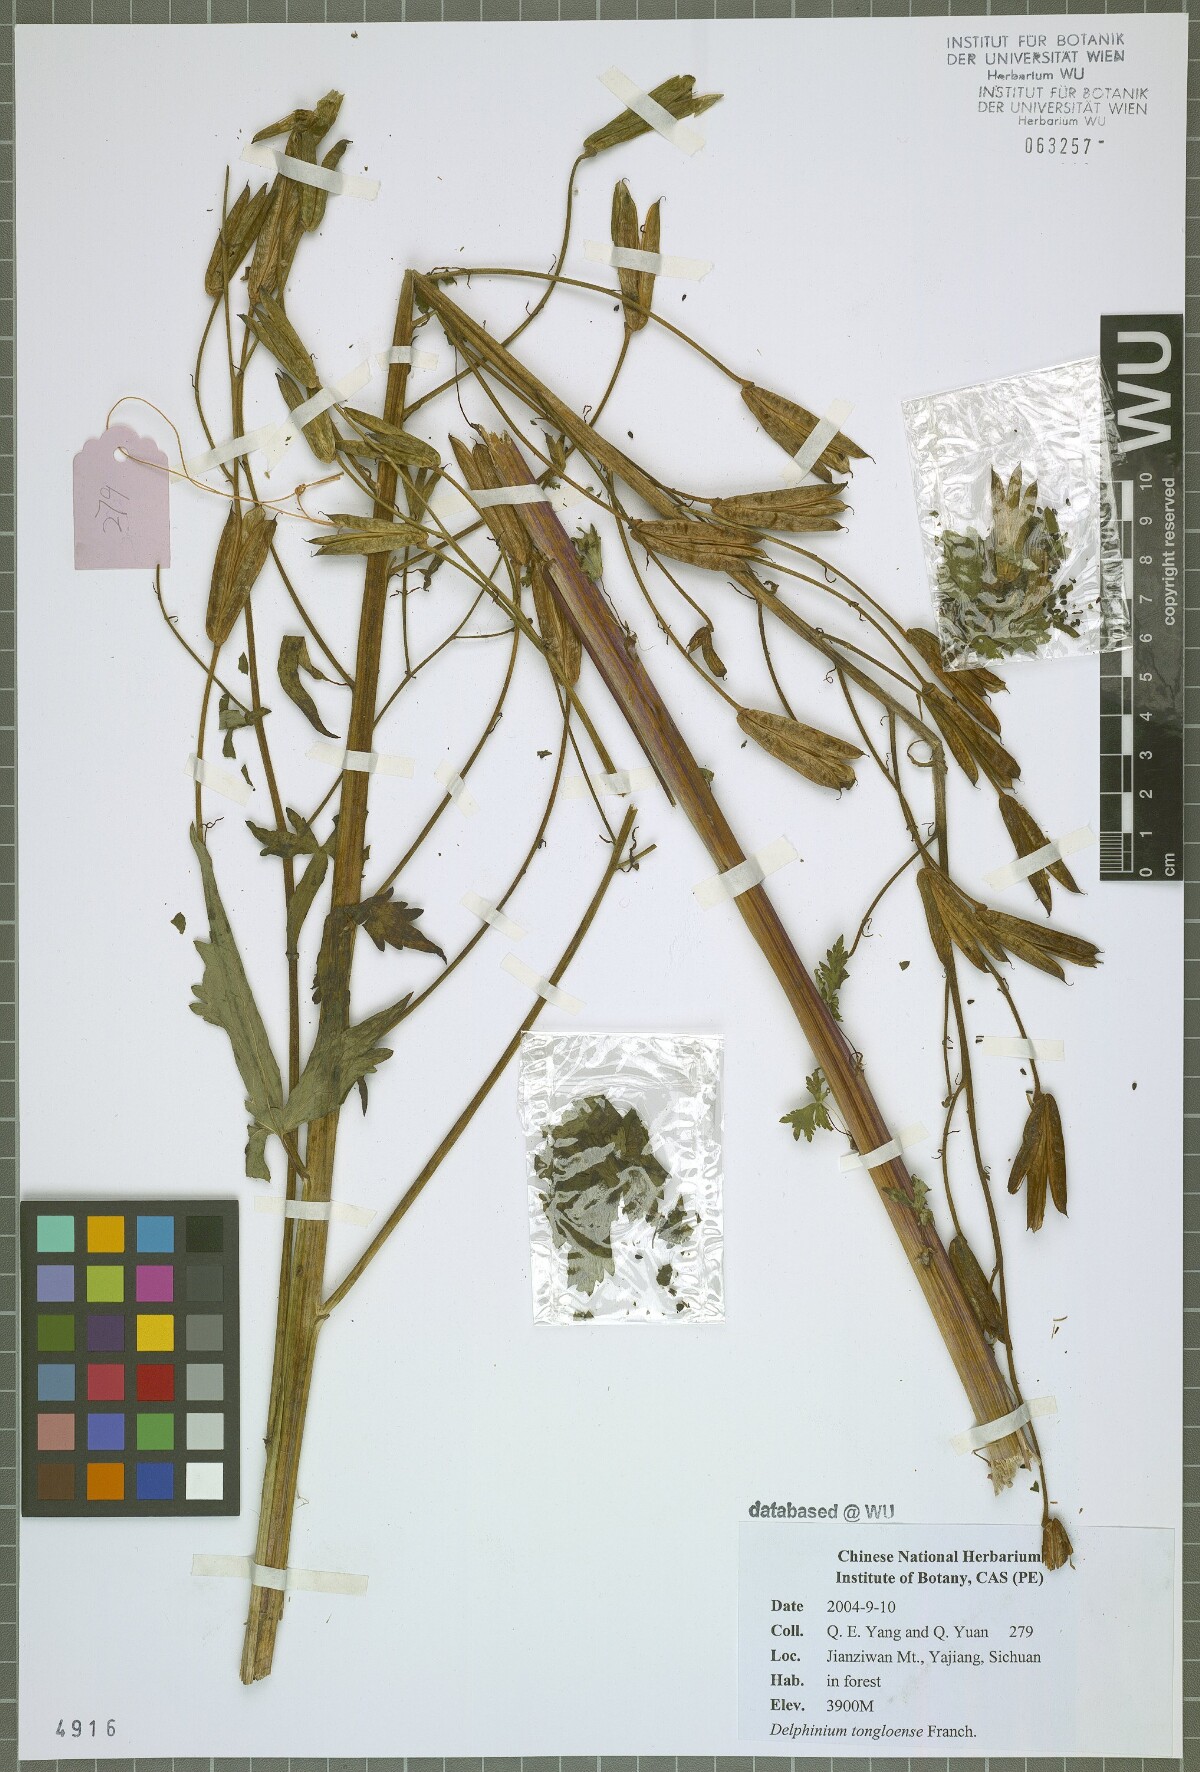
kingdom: Plantae
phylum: Tracheophyta
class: Magnoliopsida
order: Ranunculales
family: Ranunculaceae
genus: Delphinium
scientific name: Delphinium tongolense
